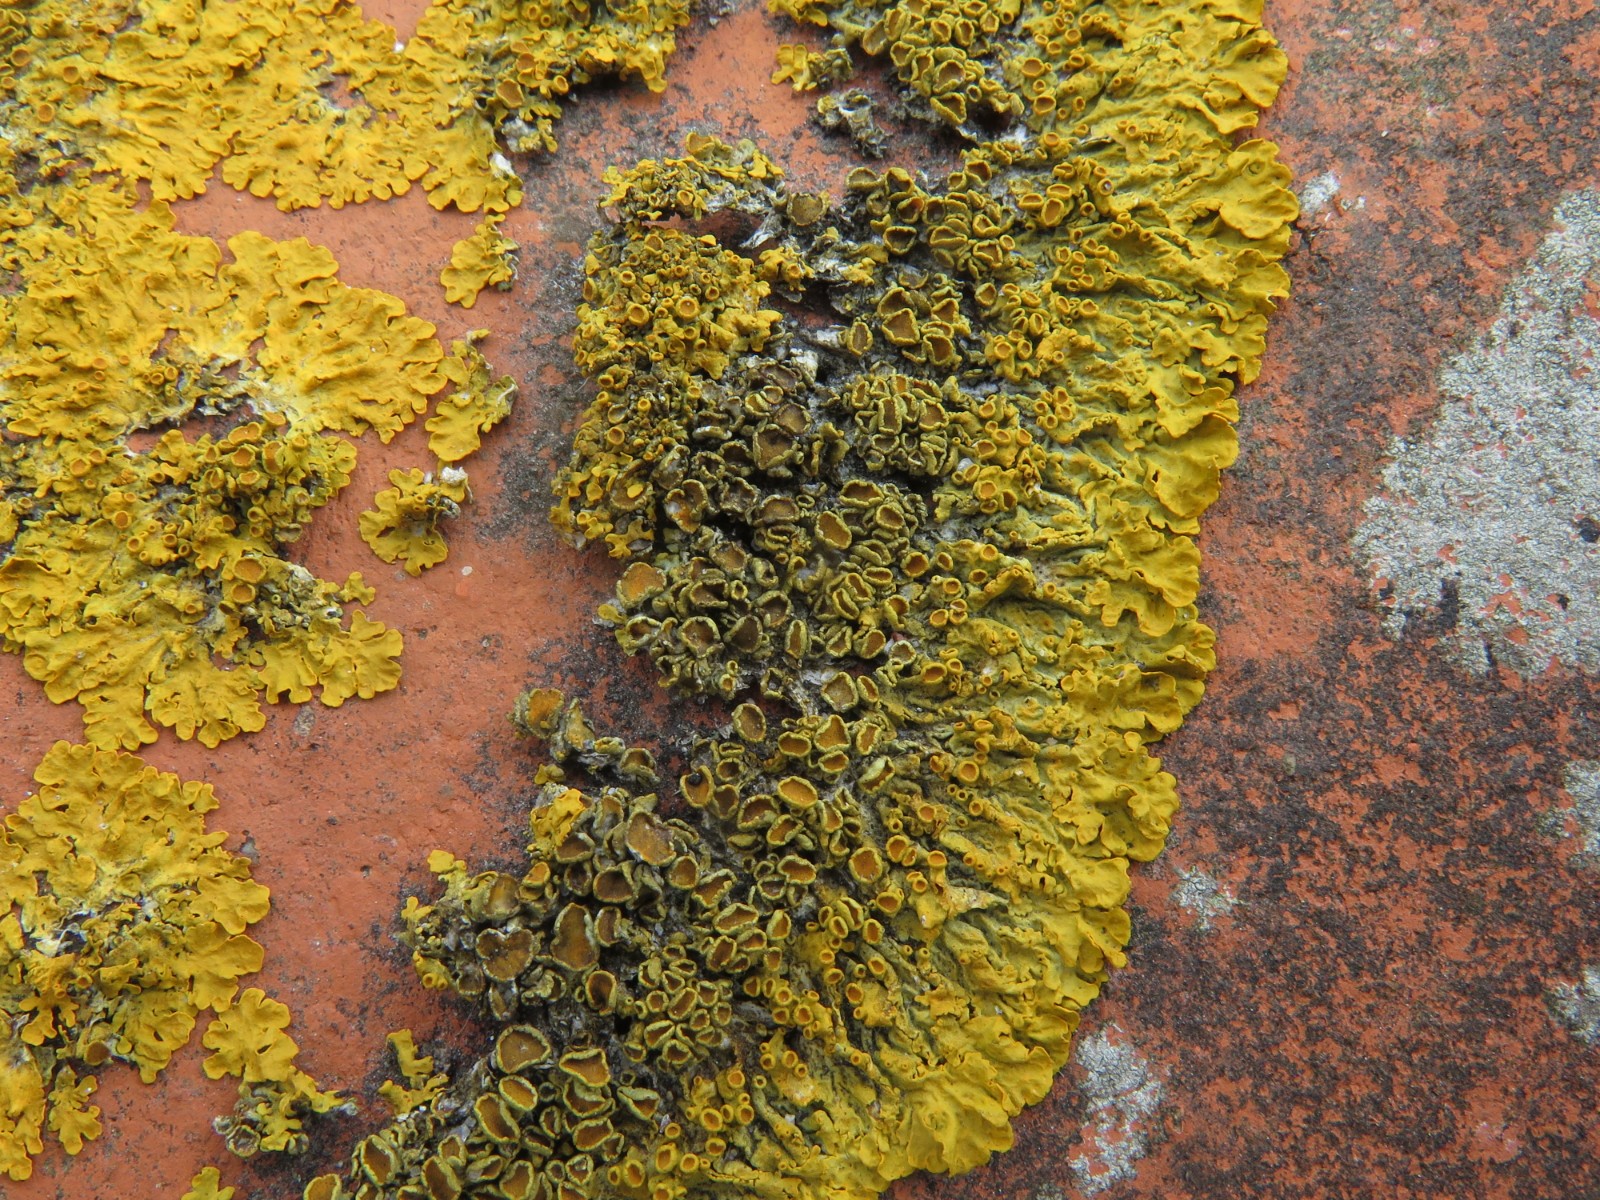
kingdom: Fungi
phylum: Ascomycota
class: Dothideomycetes
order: Mycosphaerellales
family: Teratosphaeriaceae
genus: Xanthoriicola
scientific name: Xanthoriicola physciae
